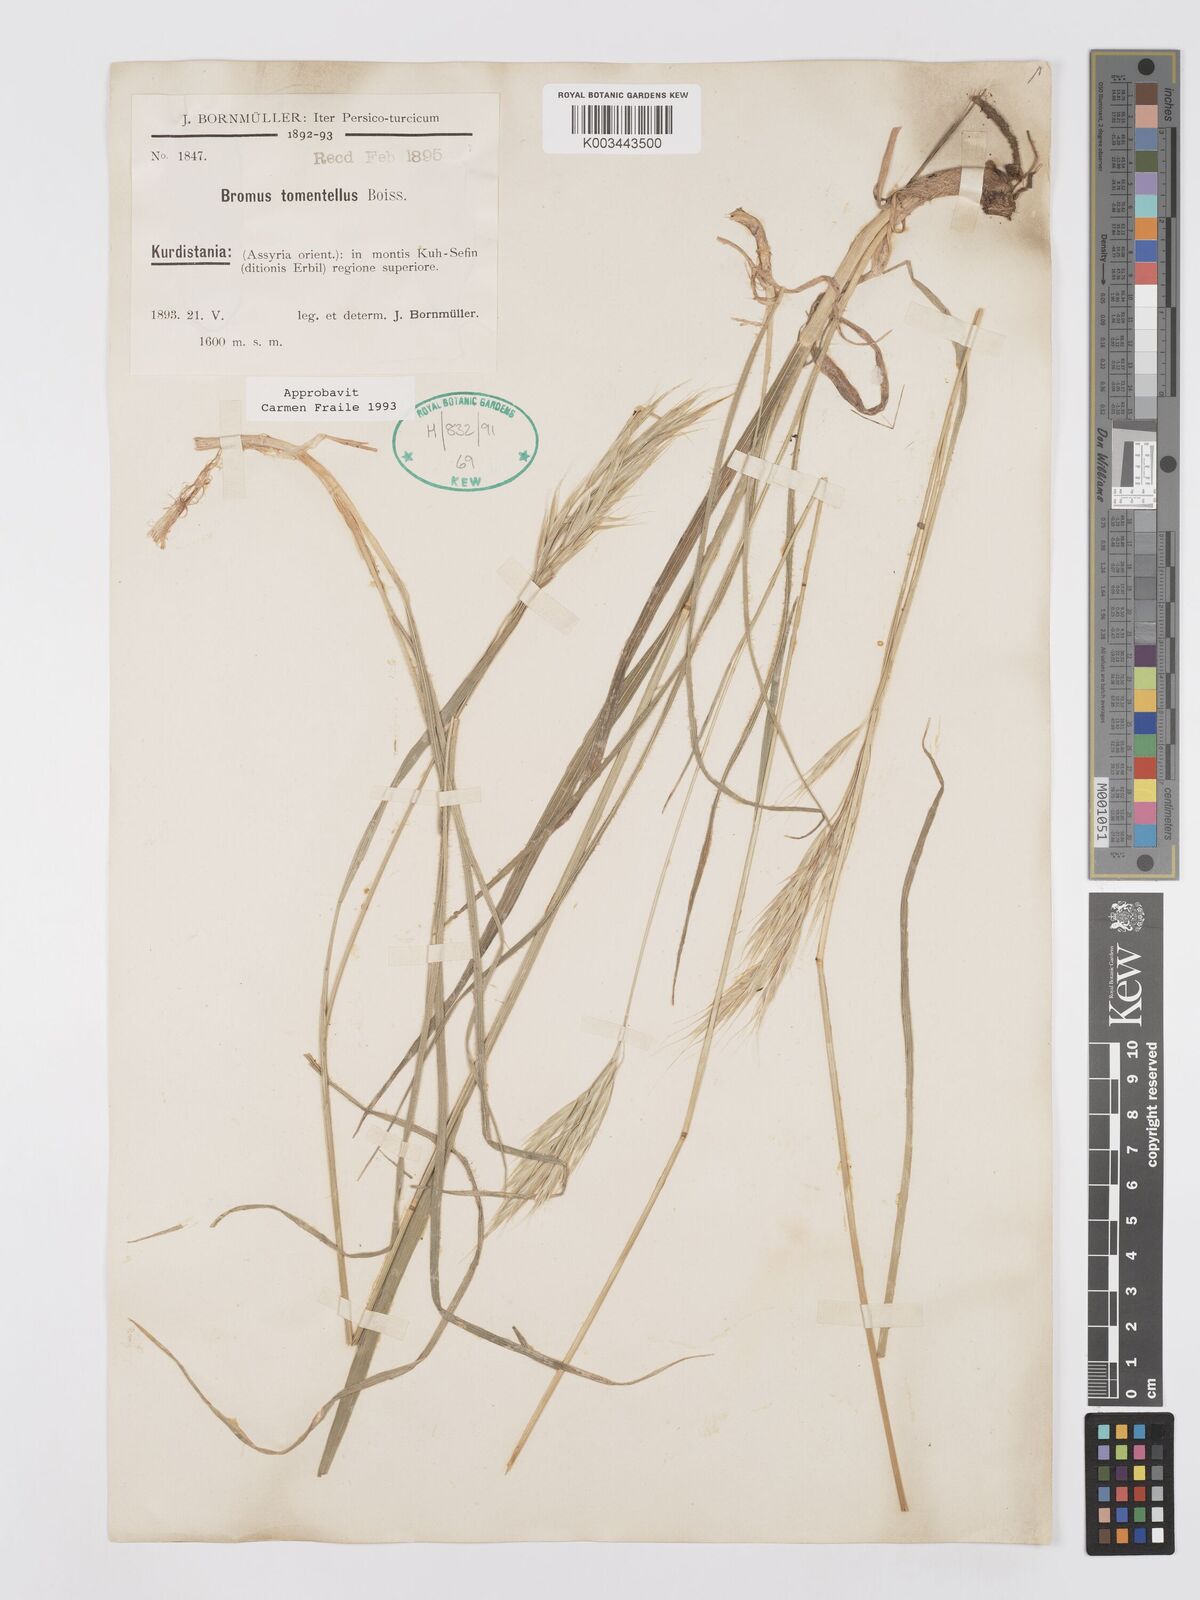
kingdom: Plantae
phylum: Tracheophyta
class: Liliopsida
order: Poales
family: Poaceae
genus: Bromus
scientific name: Bromus tomentellus
